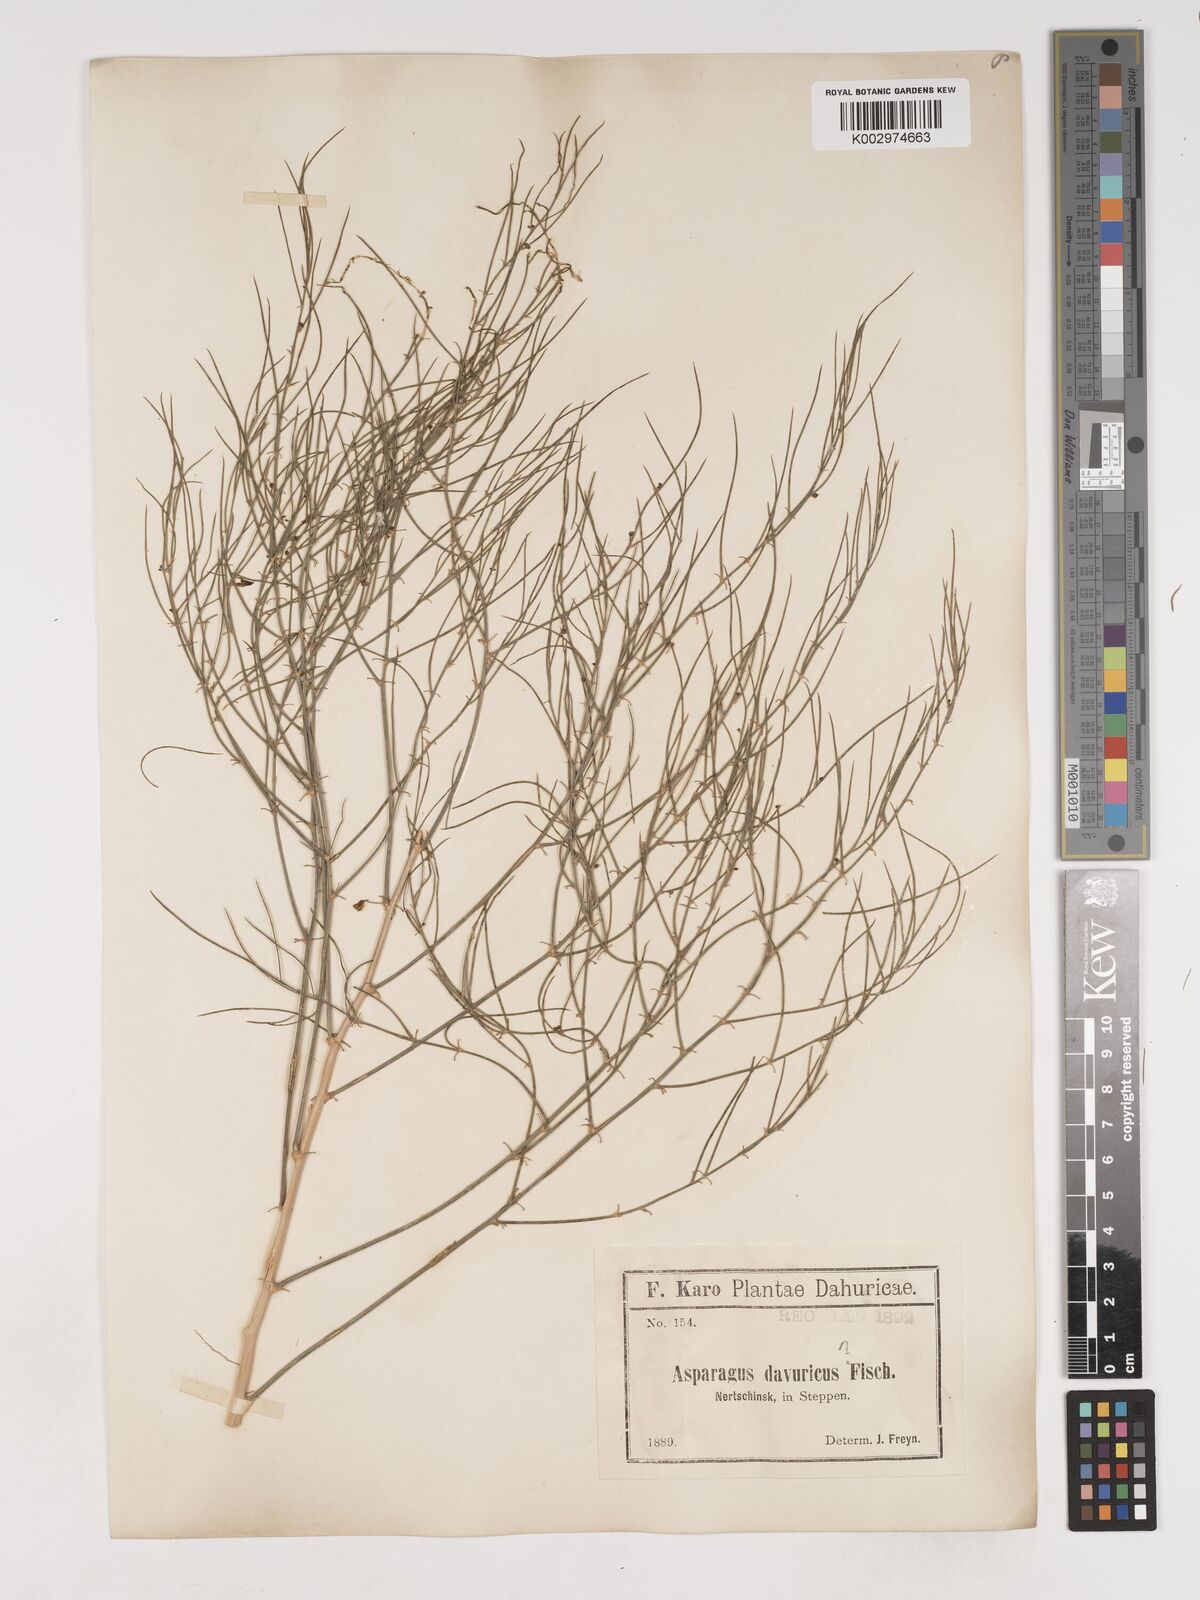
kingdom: Plantae
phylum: Tracheophyta
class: Liliopsida
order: Asparagales
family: Asparagaceae
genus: Asparagus
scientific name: Asparagus
